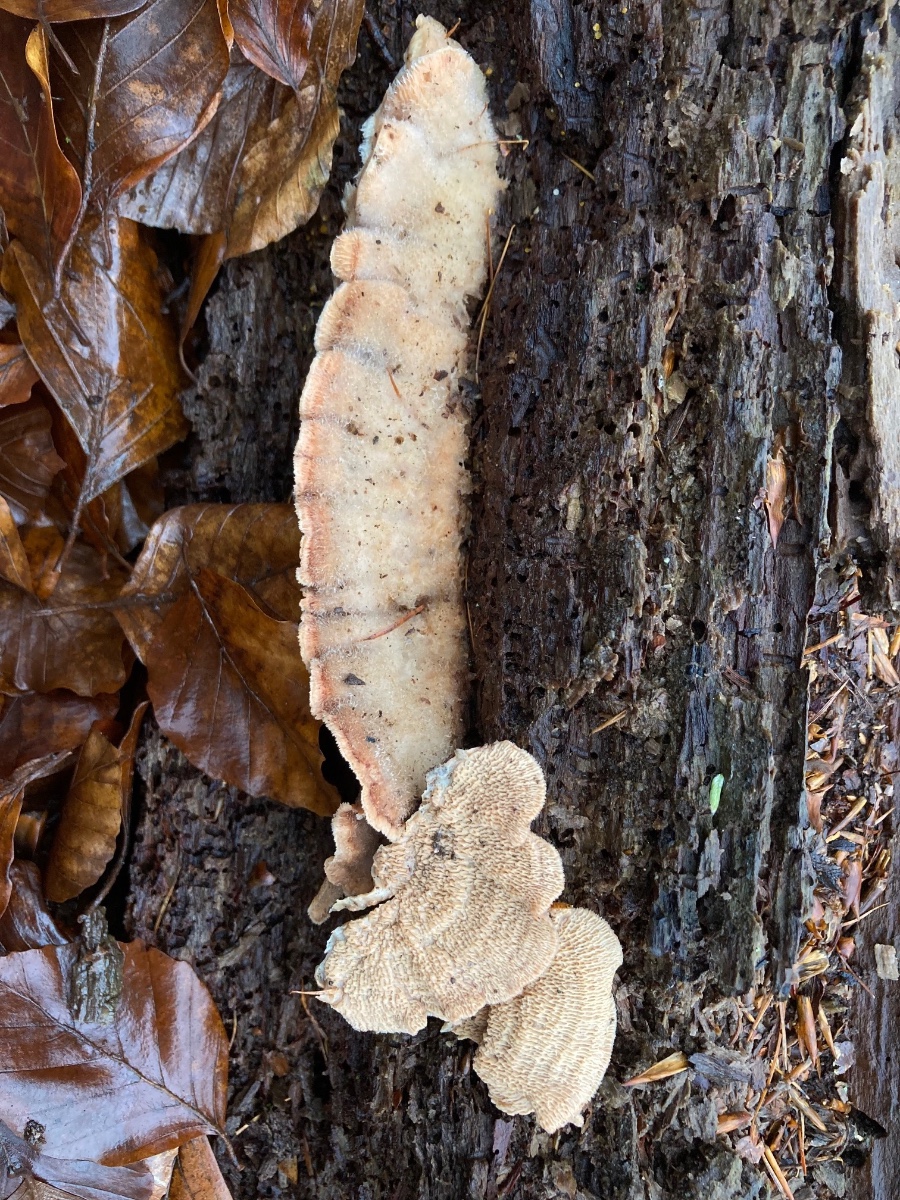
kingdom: Fungi
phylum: Basidiomycota
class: Agaricomycetes
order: Polyporales
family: Meruliaceae
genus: Phlebia
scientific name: Phlebia tremellosa
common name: bævrende åresvamp
